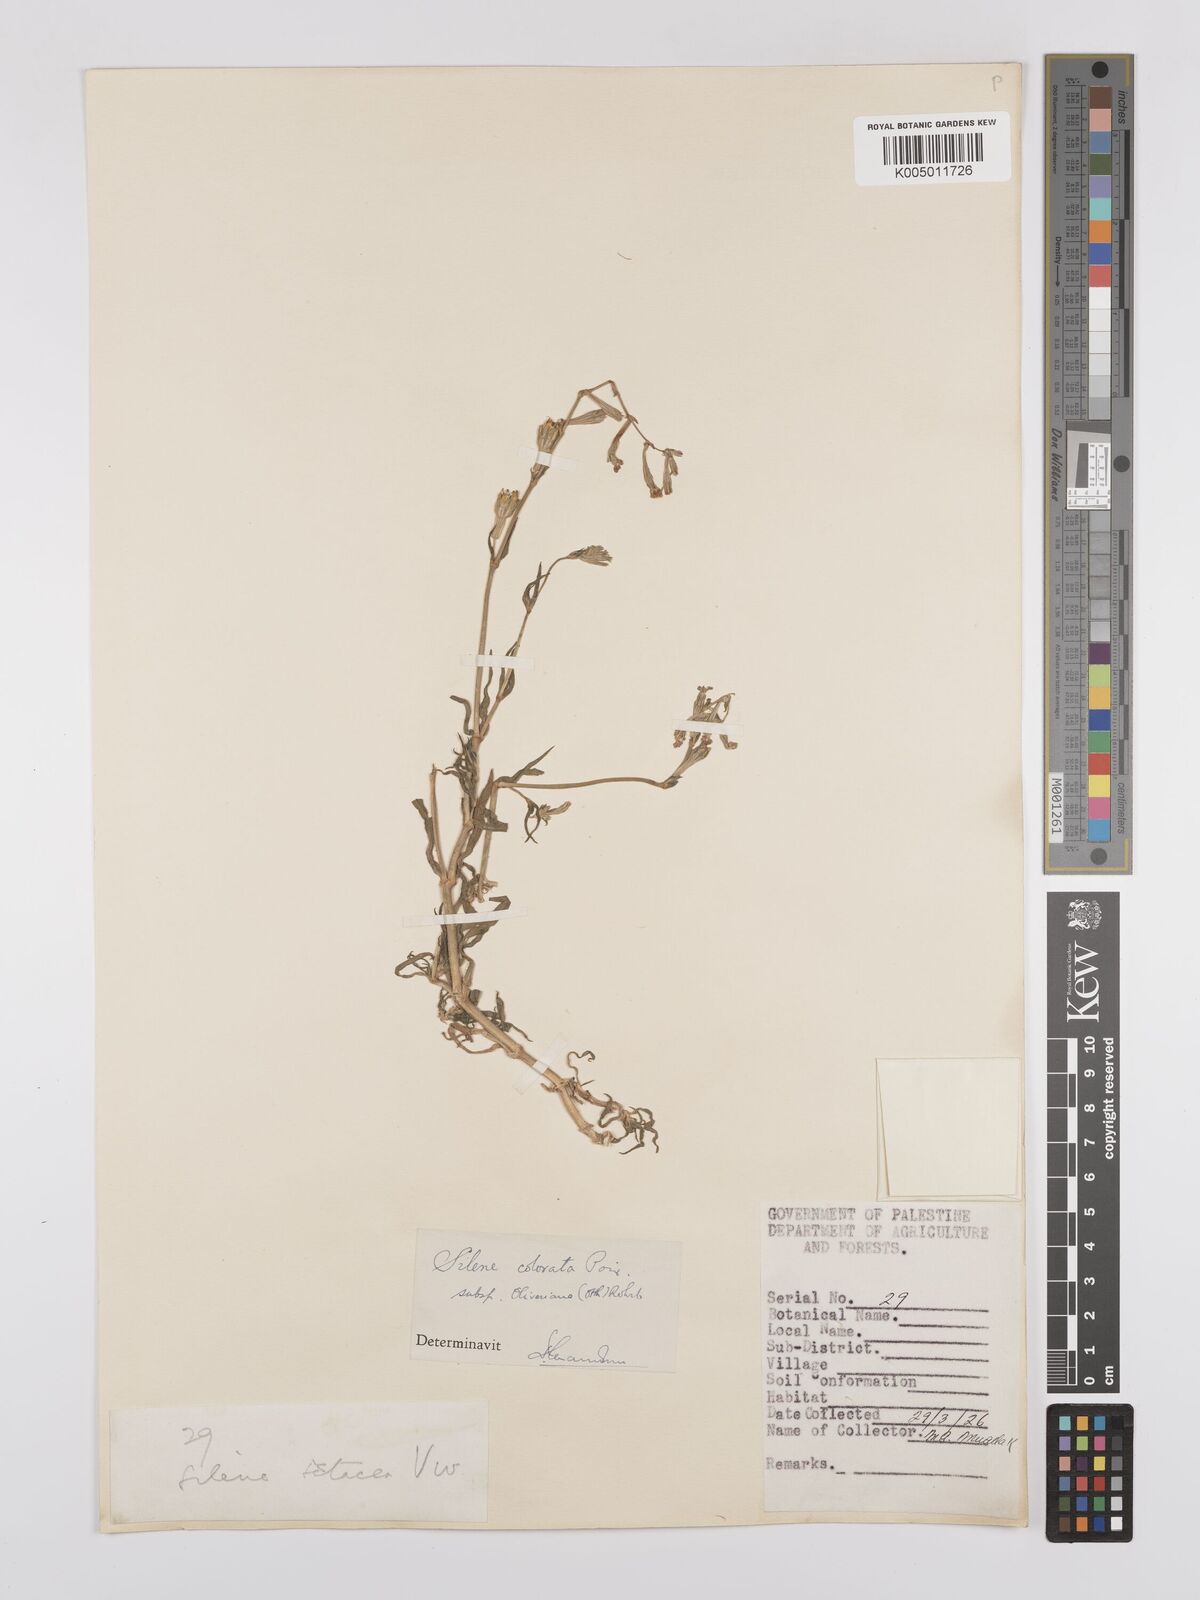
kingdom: Plantae
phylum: Tracheophyta
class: Magnoliopsida
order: Caryophyllales
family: Caryophyllaceae
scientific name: Caryophyllaceae
